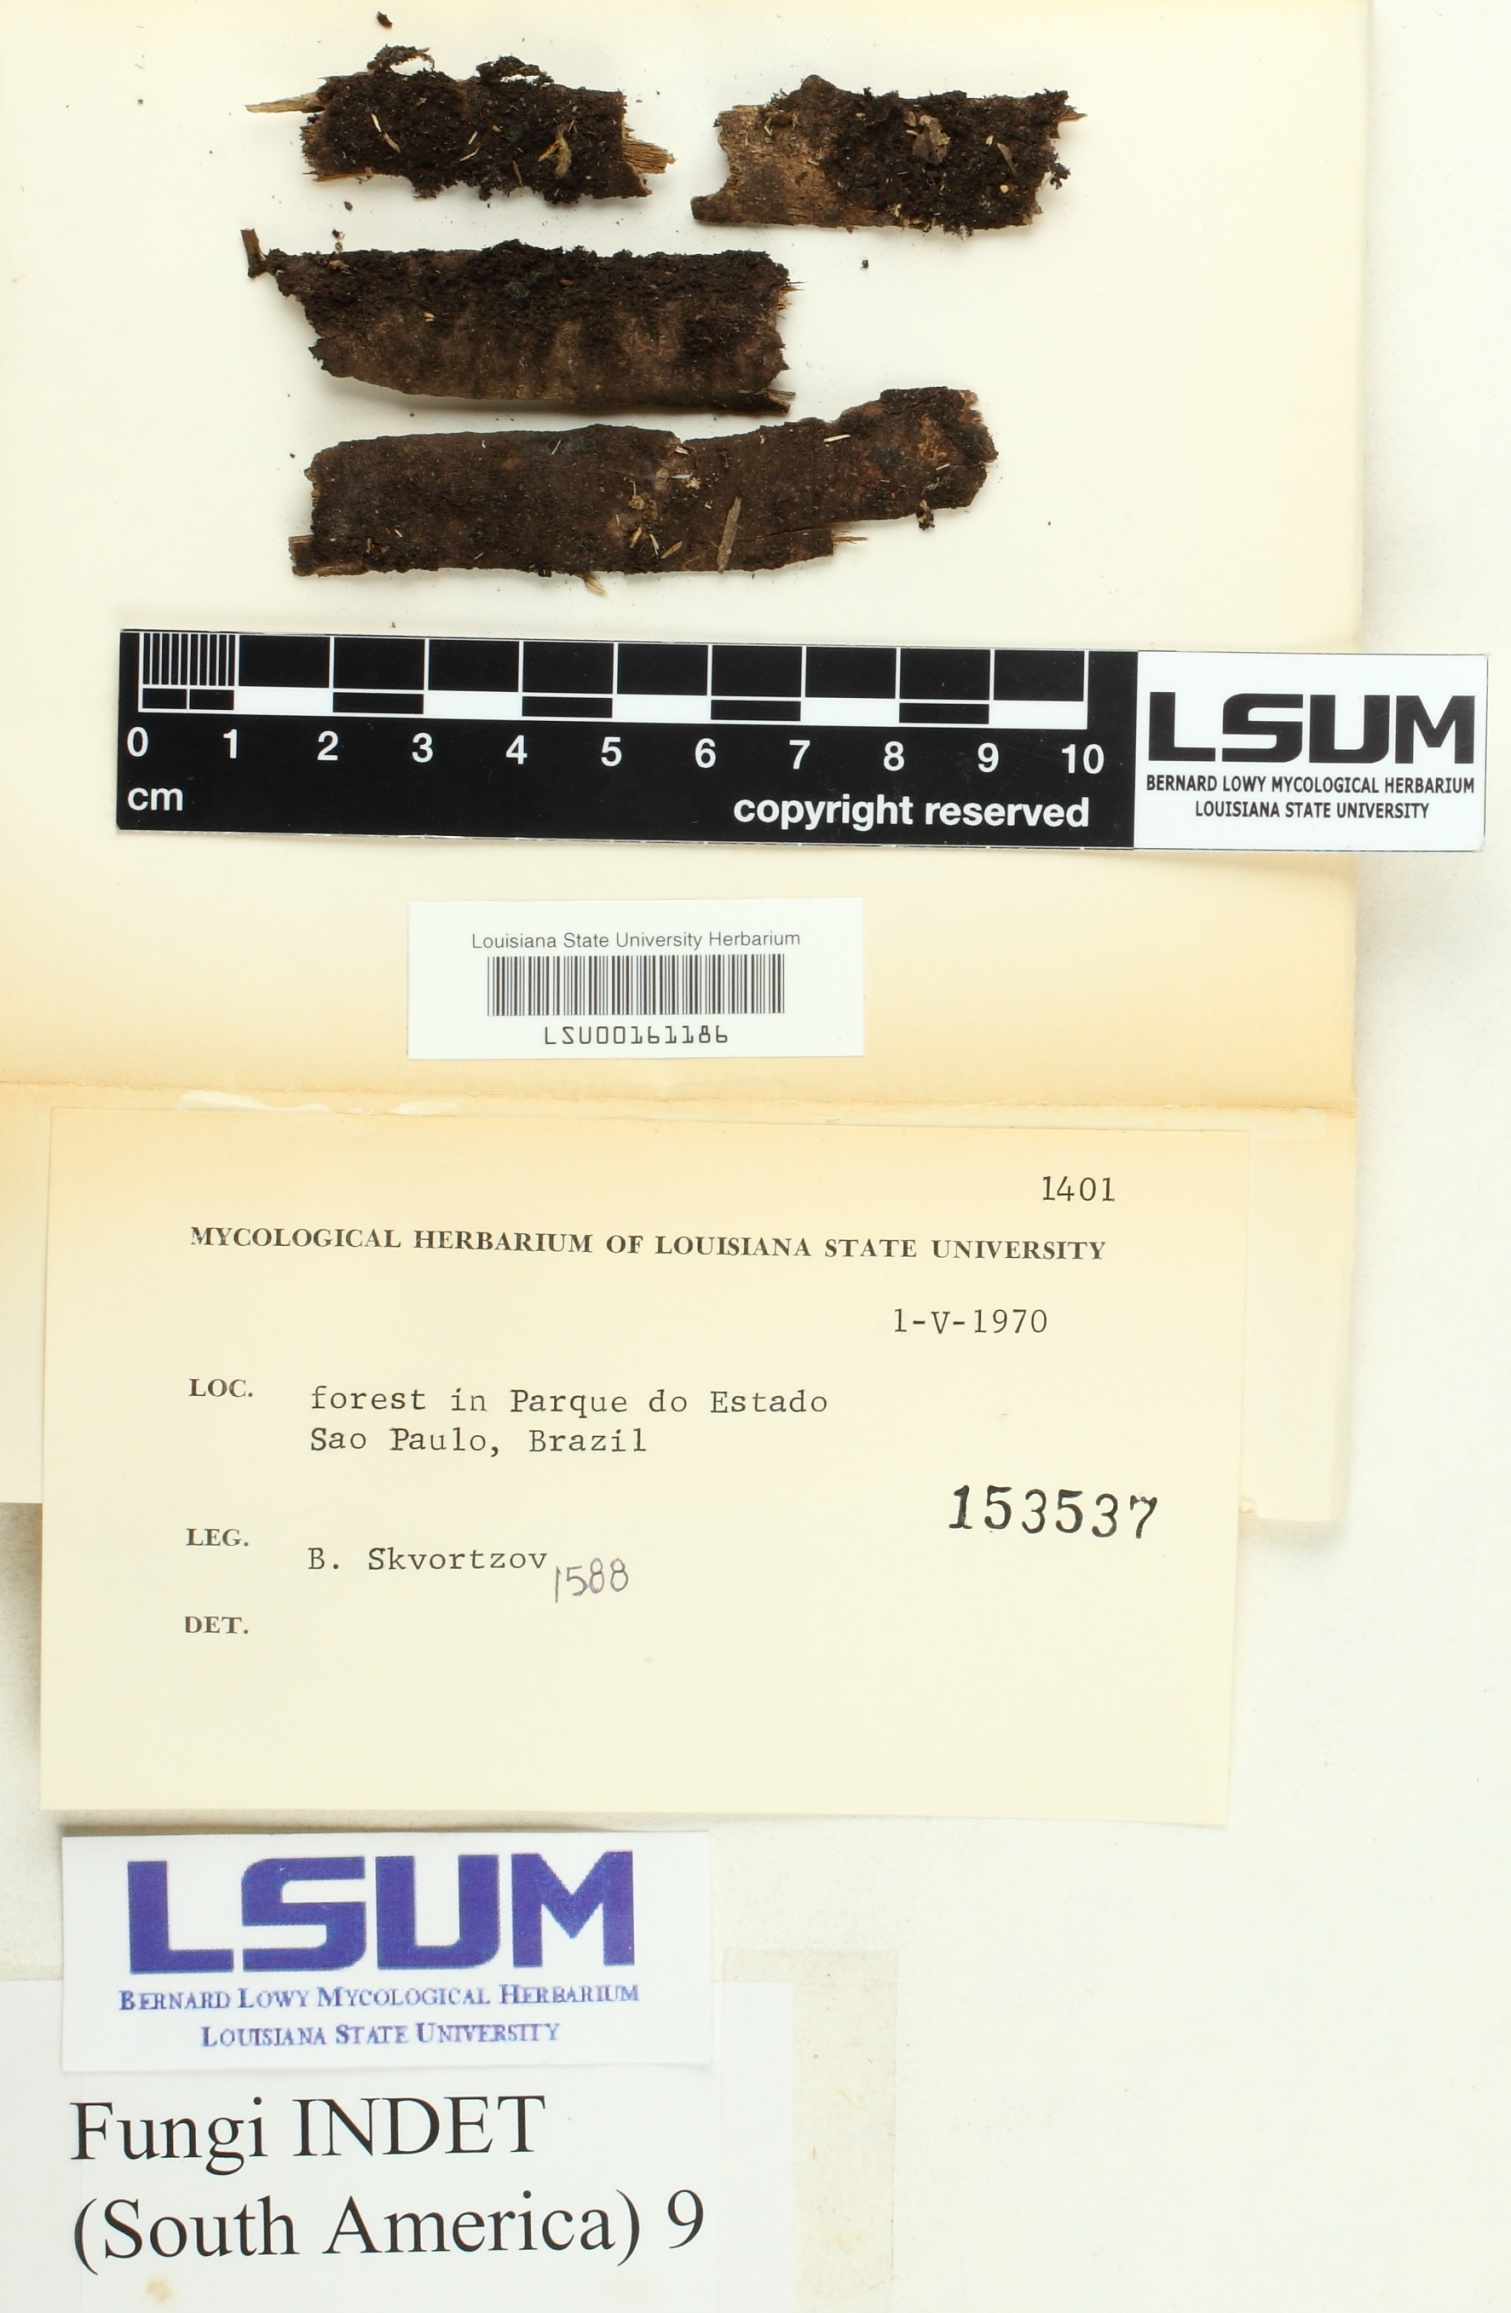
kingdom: Fungi
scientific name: Fungi
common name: Fungi
